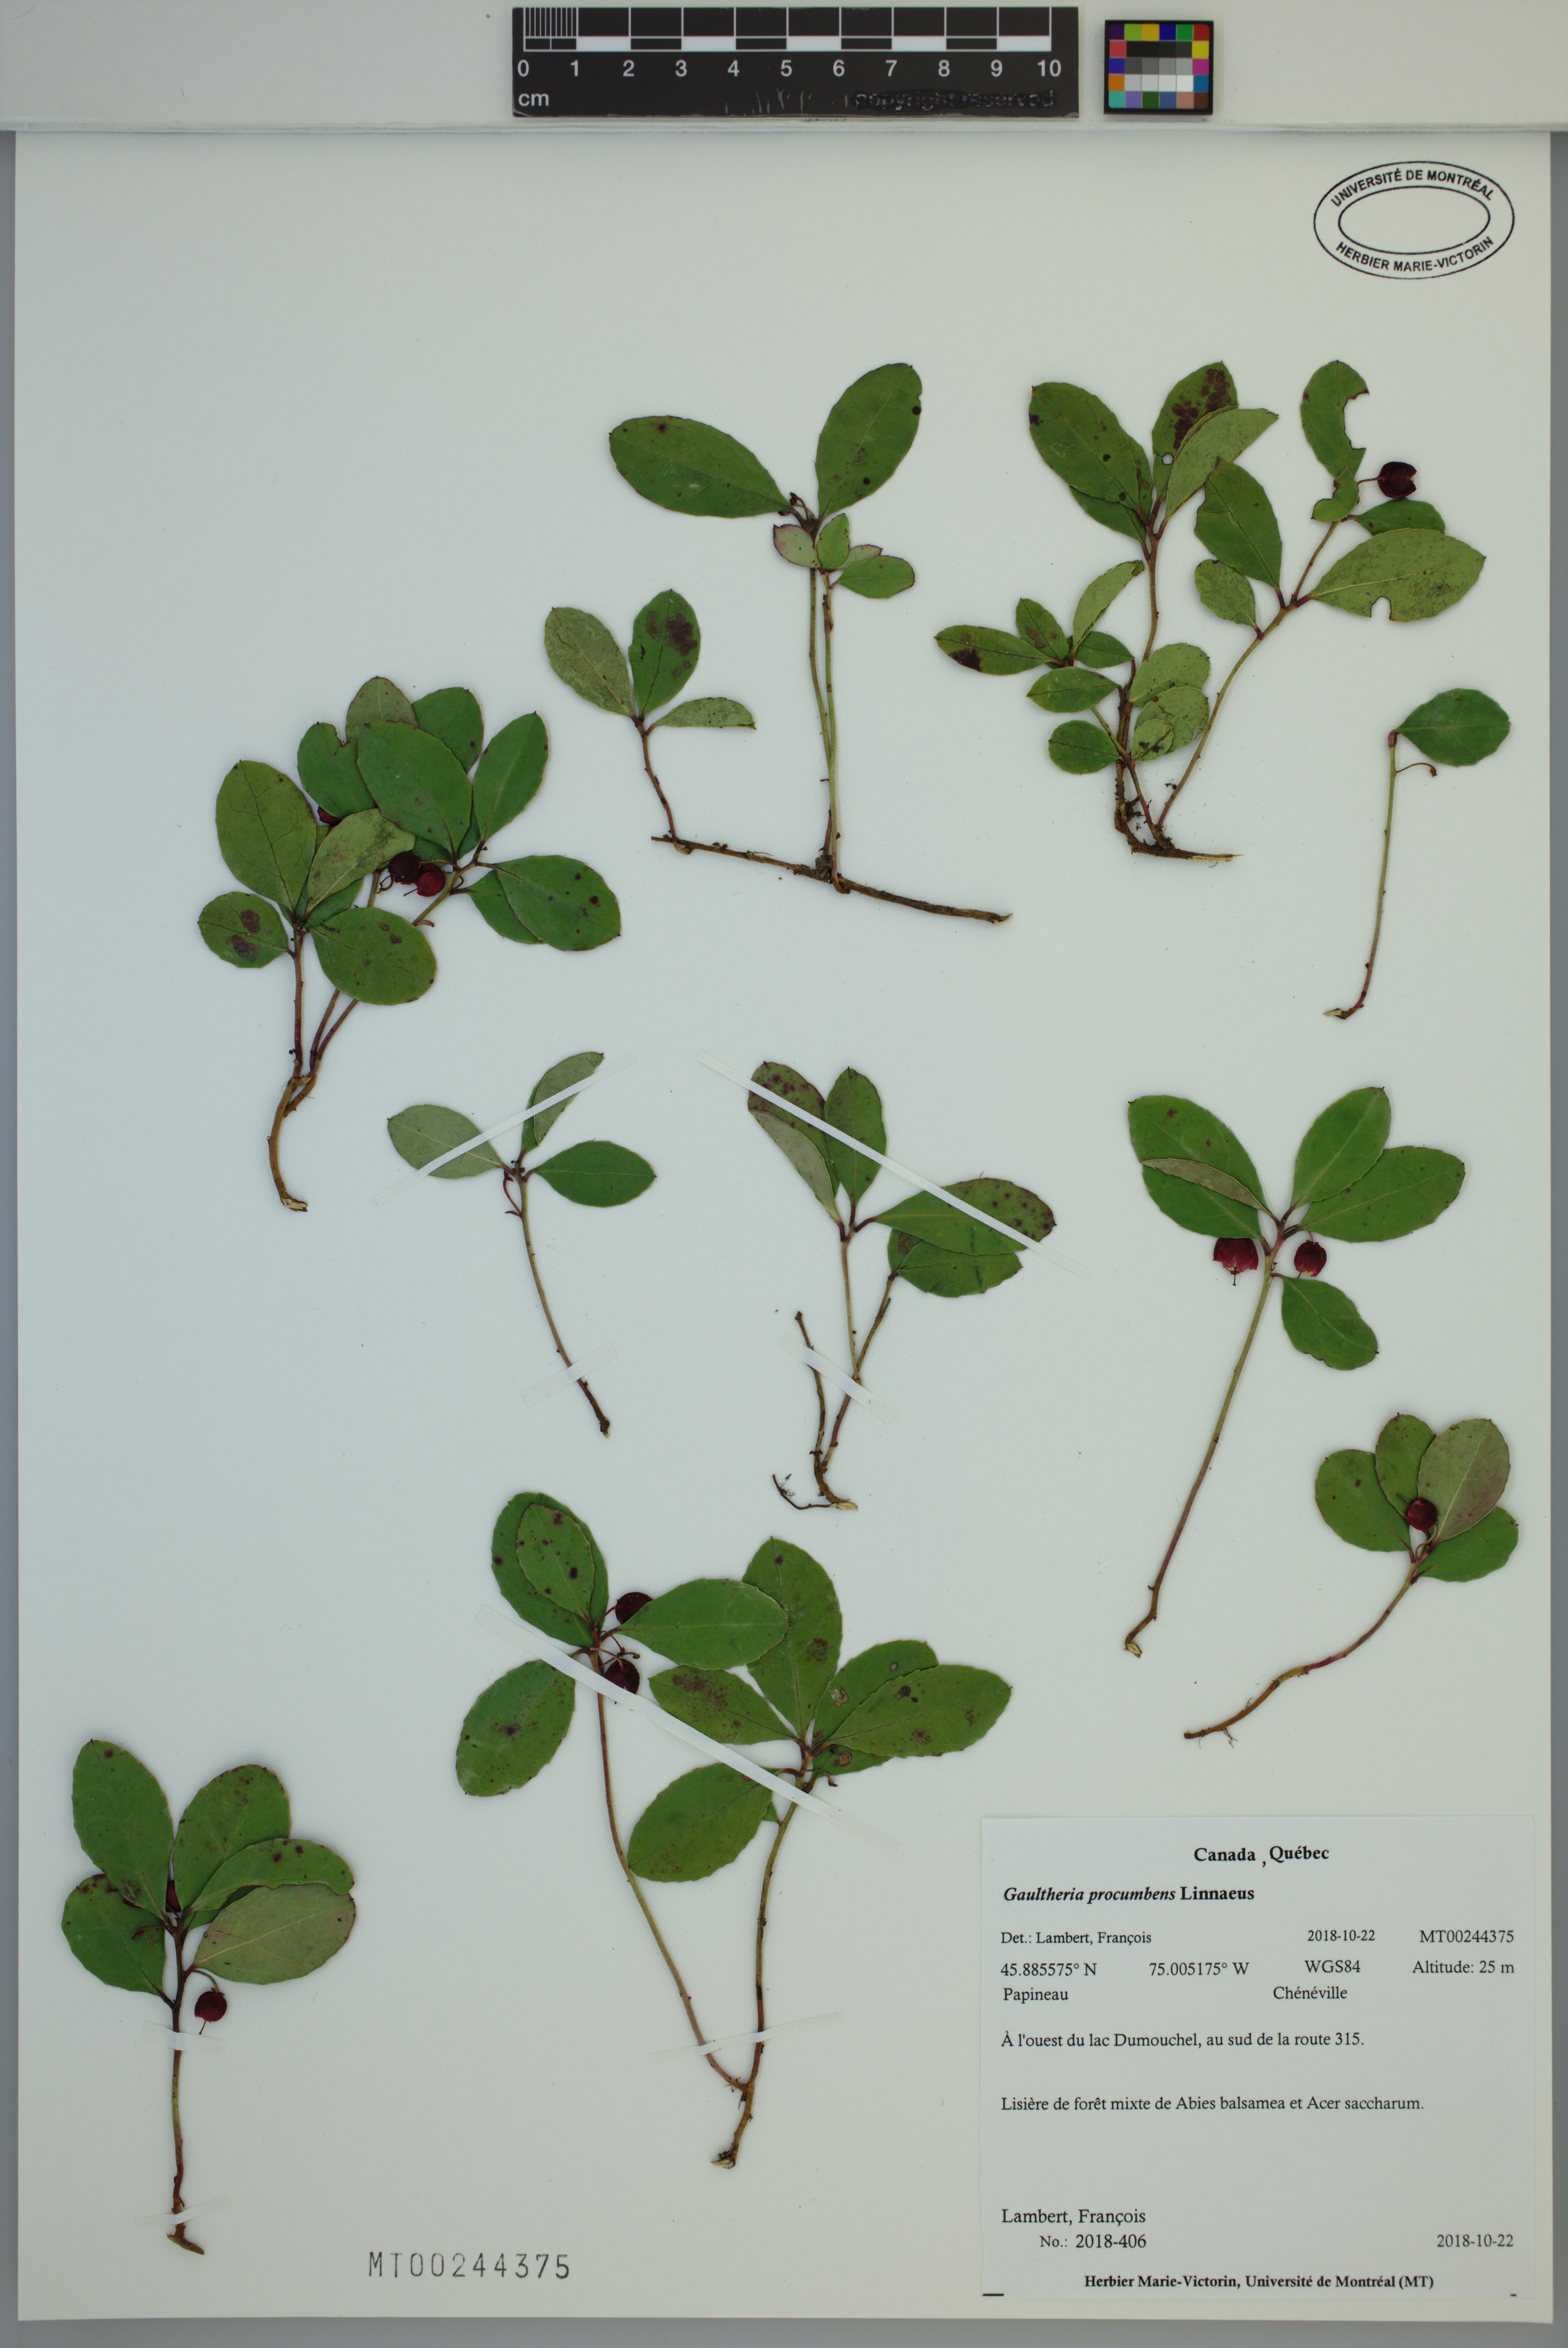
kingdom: Plantae
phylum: Tracheophyta
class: Magnoliopsida
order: Ericales
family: Ericaceae
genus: Gaultheria
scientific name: Gaultheria procumbens
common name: Checkerberry
